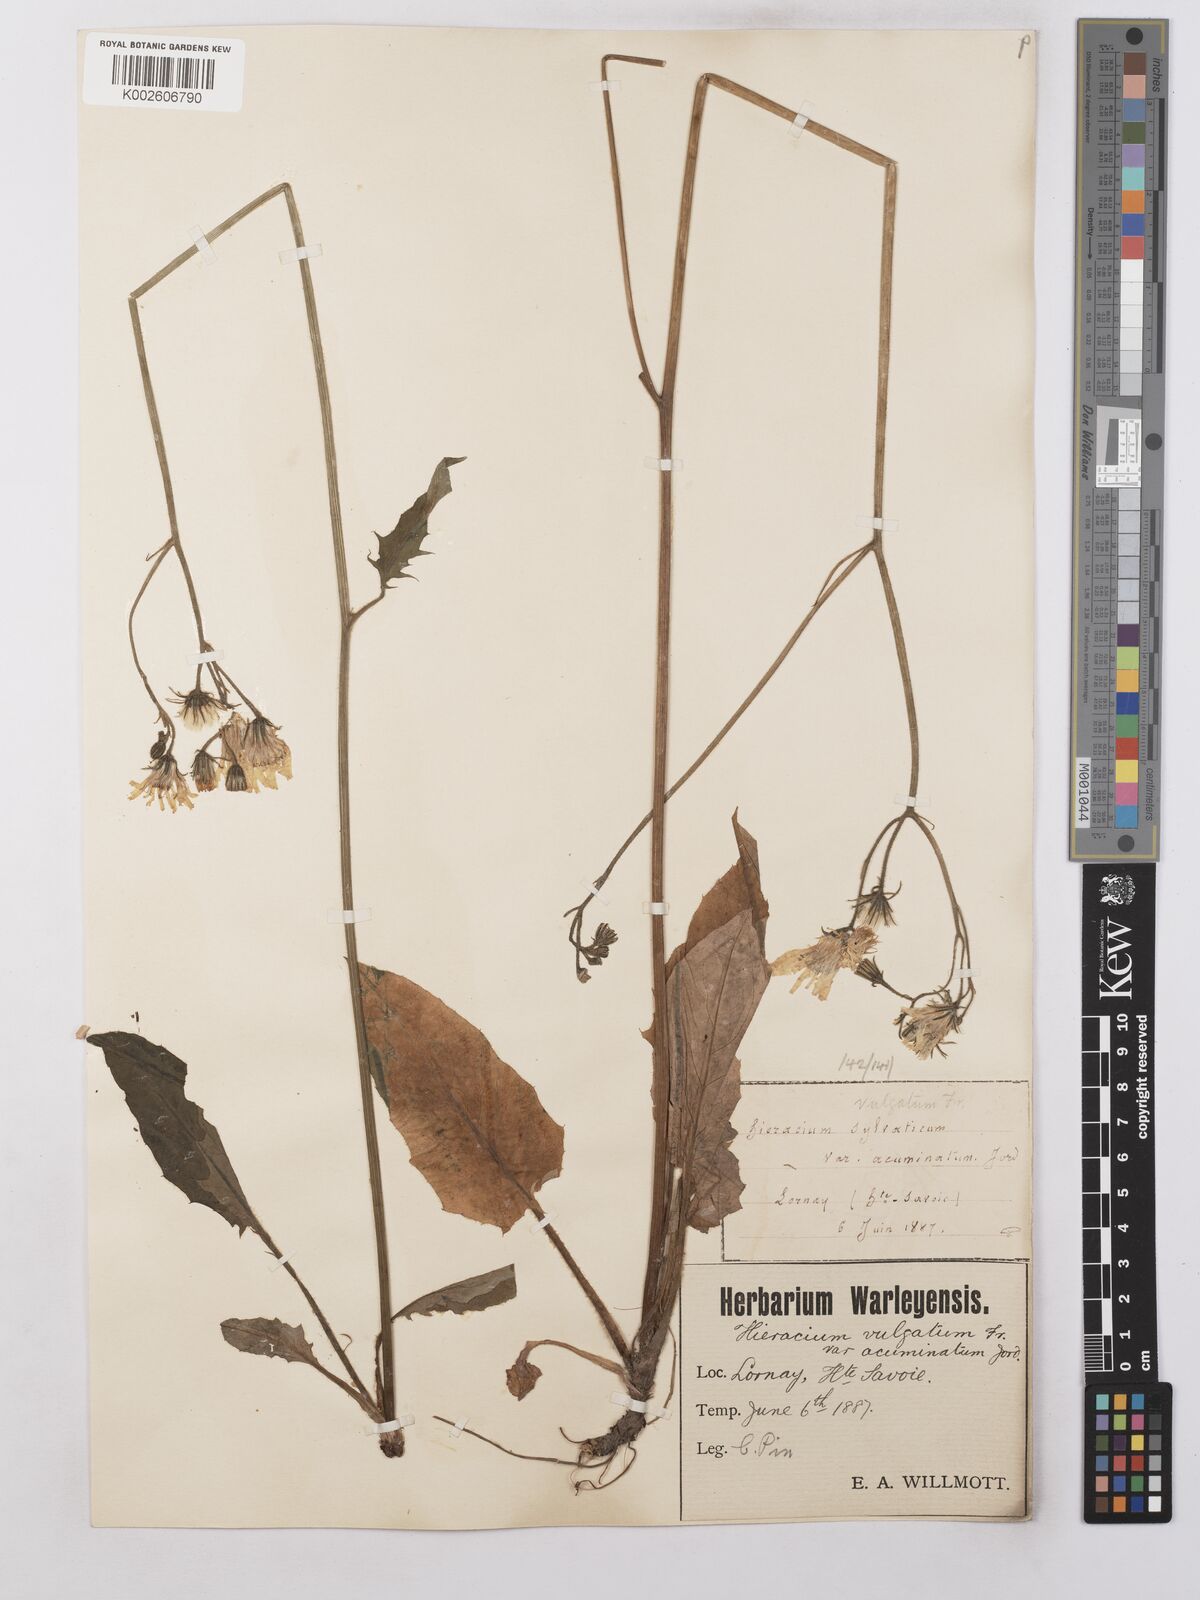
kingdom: Plantae
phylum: Tracheophyta
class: Magnoliopsida
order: Asterales
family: Asteraceae
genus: Hieracium
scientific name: Hieracium lachenalii
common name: Common hawkweed
